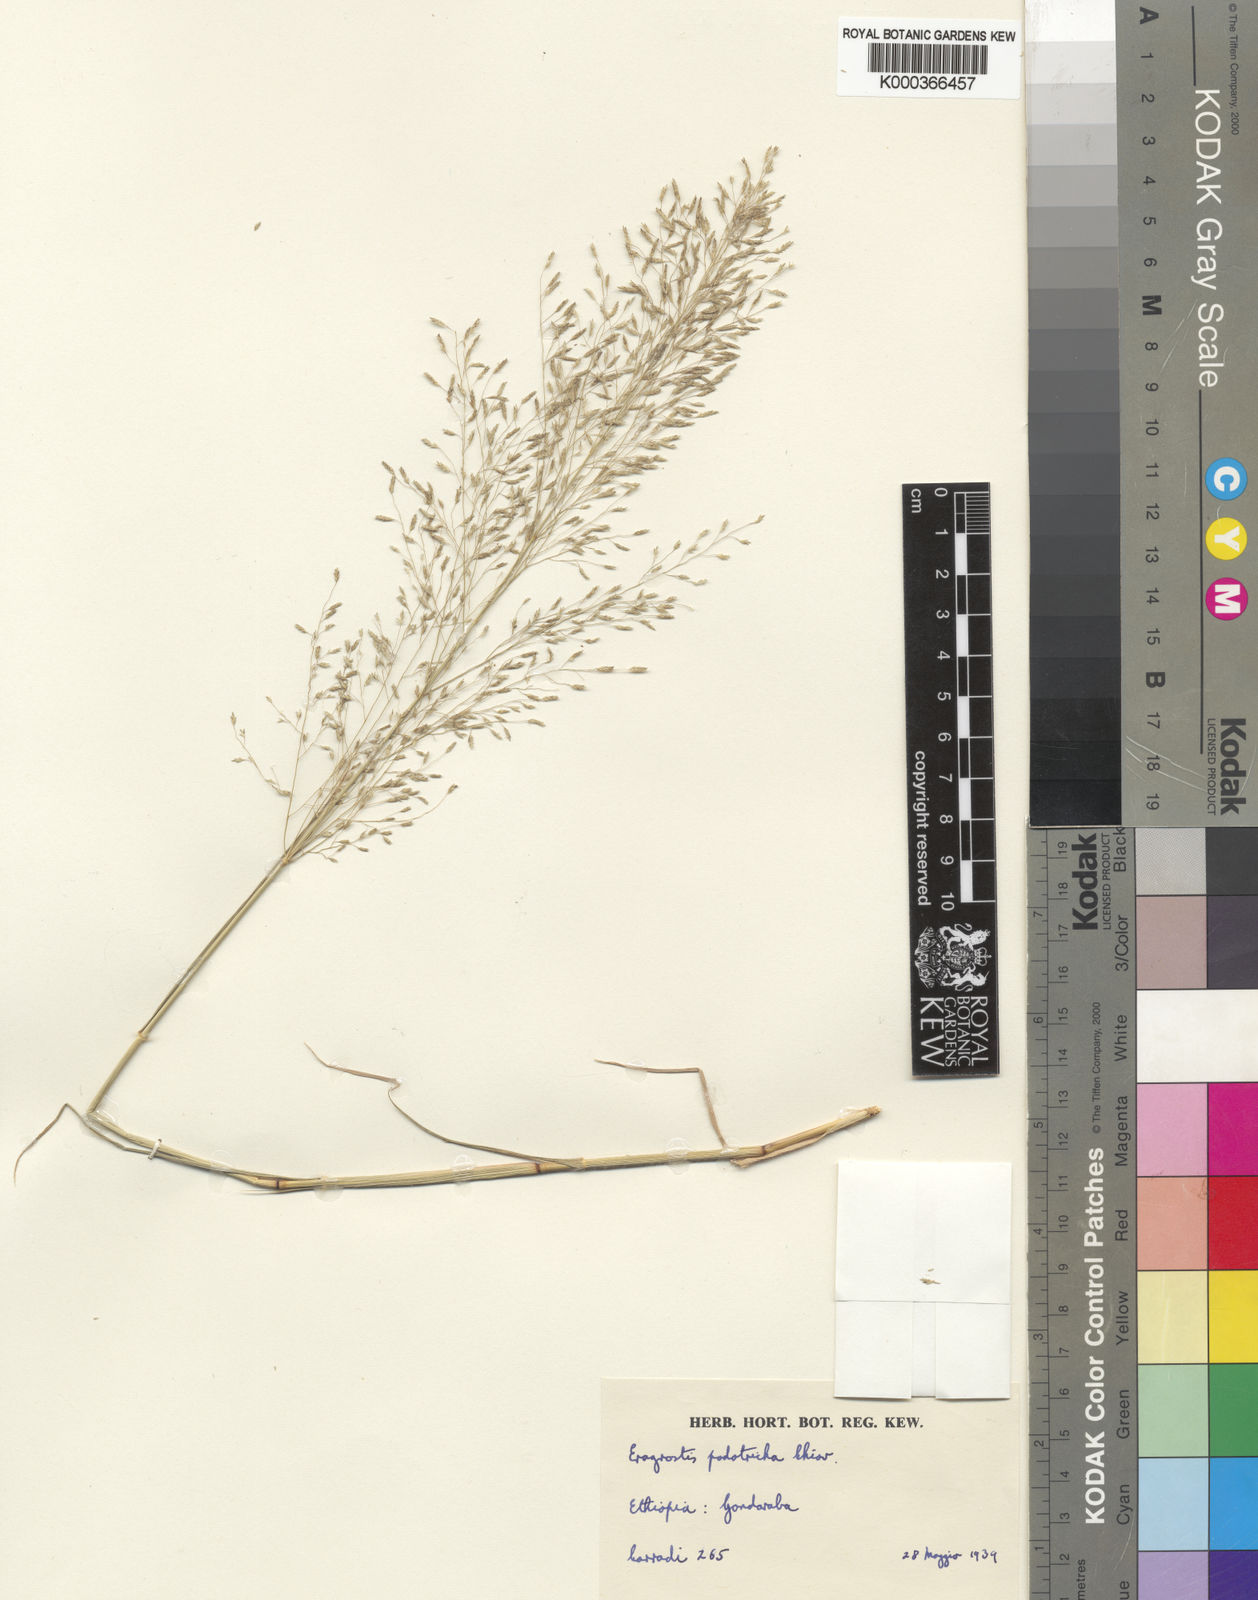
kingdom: Plantae
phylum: Tracheophyta
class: Liliopsida
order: Poales
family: Poaceae
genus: Eragrostis
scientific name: Eragrostis porosa
